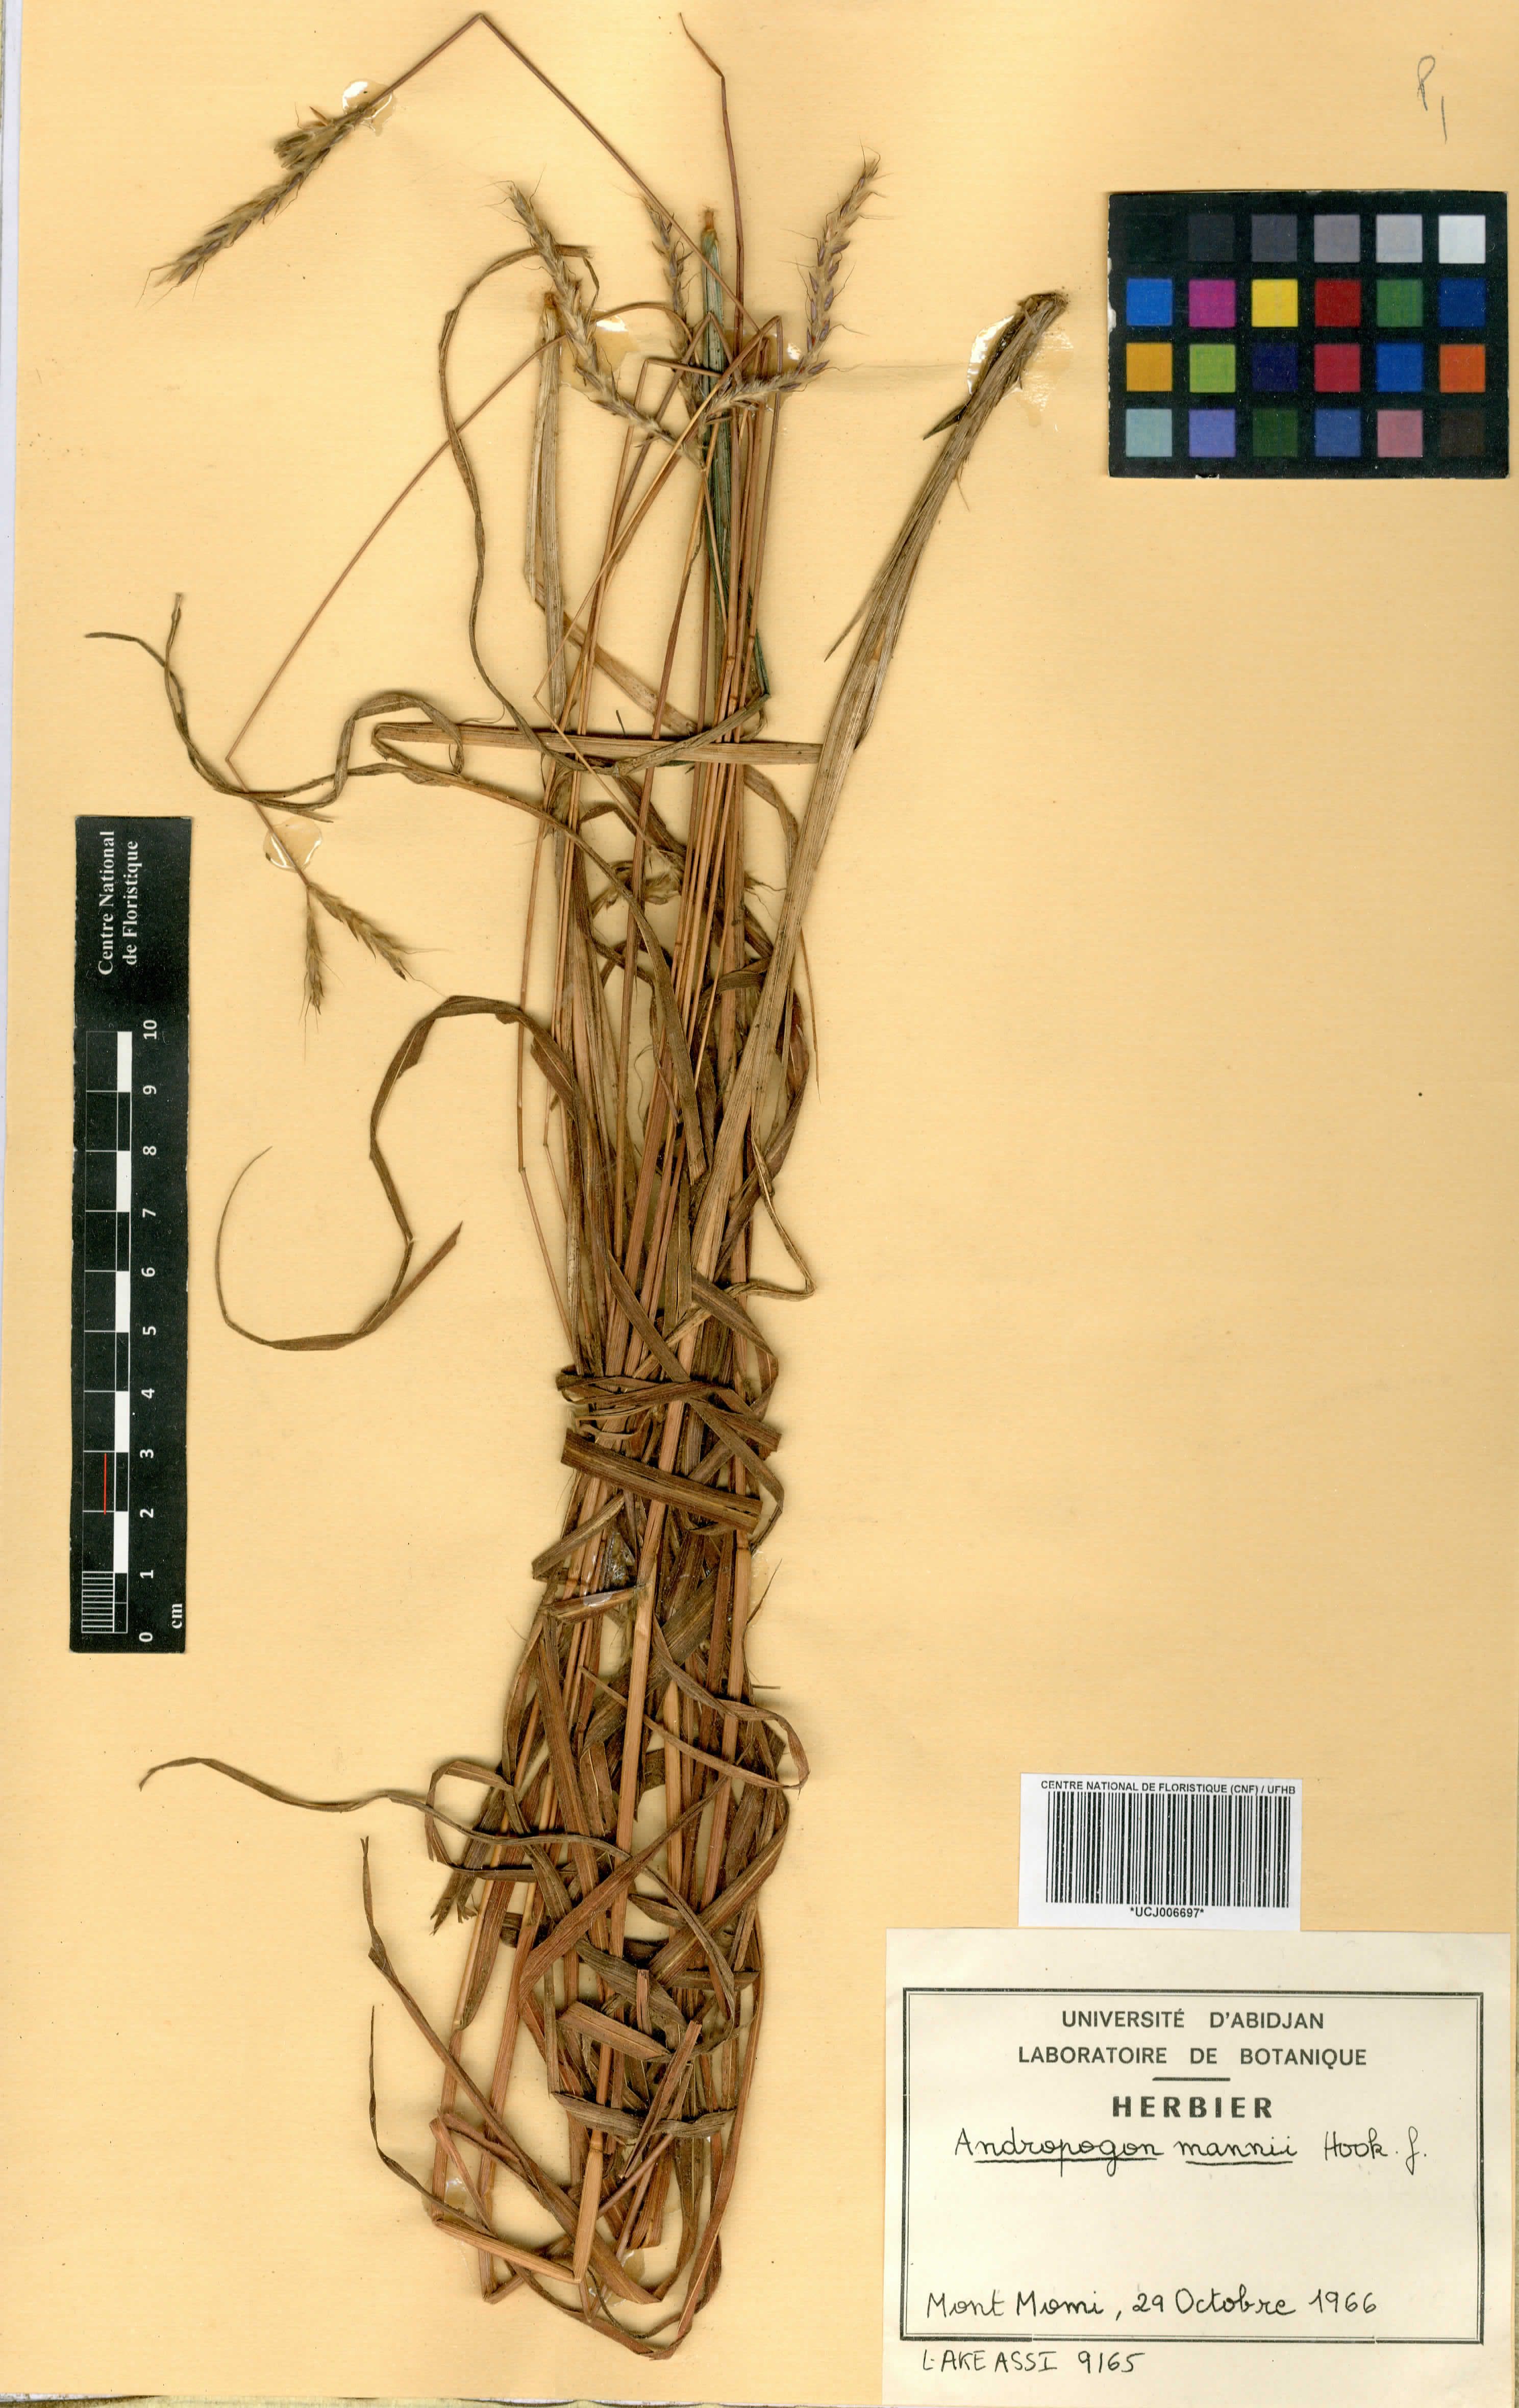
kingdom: Plantae
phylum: Tracheophyta
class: Liliopsida
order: Poales
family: Poaceae
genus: Andropogon
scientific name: Andropogon mannii
